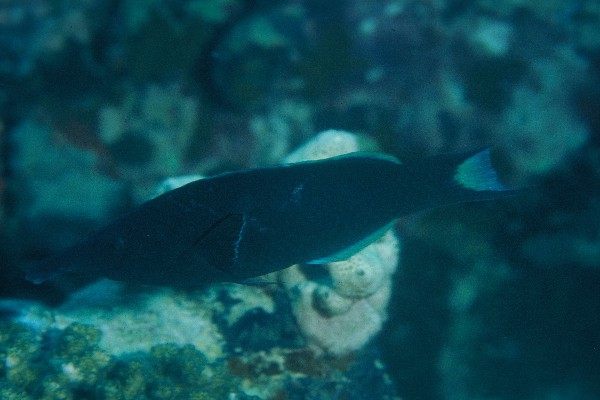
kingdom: Animalia
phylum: Chordata
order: Perciformes
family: Labridae
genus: Gomphosus
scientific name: Gomphosus caeruleus
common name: Bird wrasse
